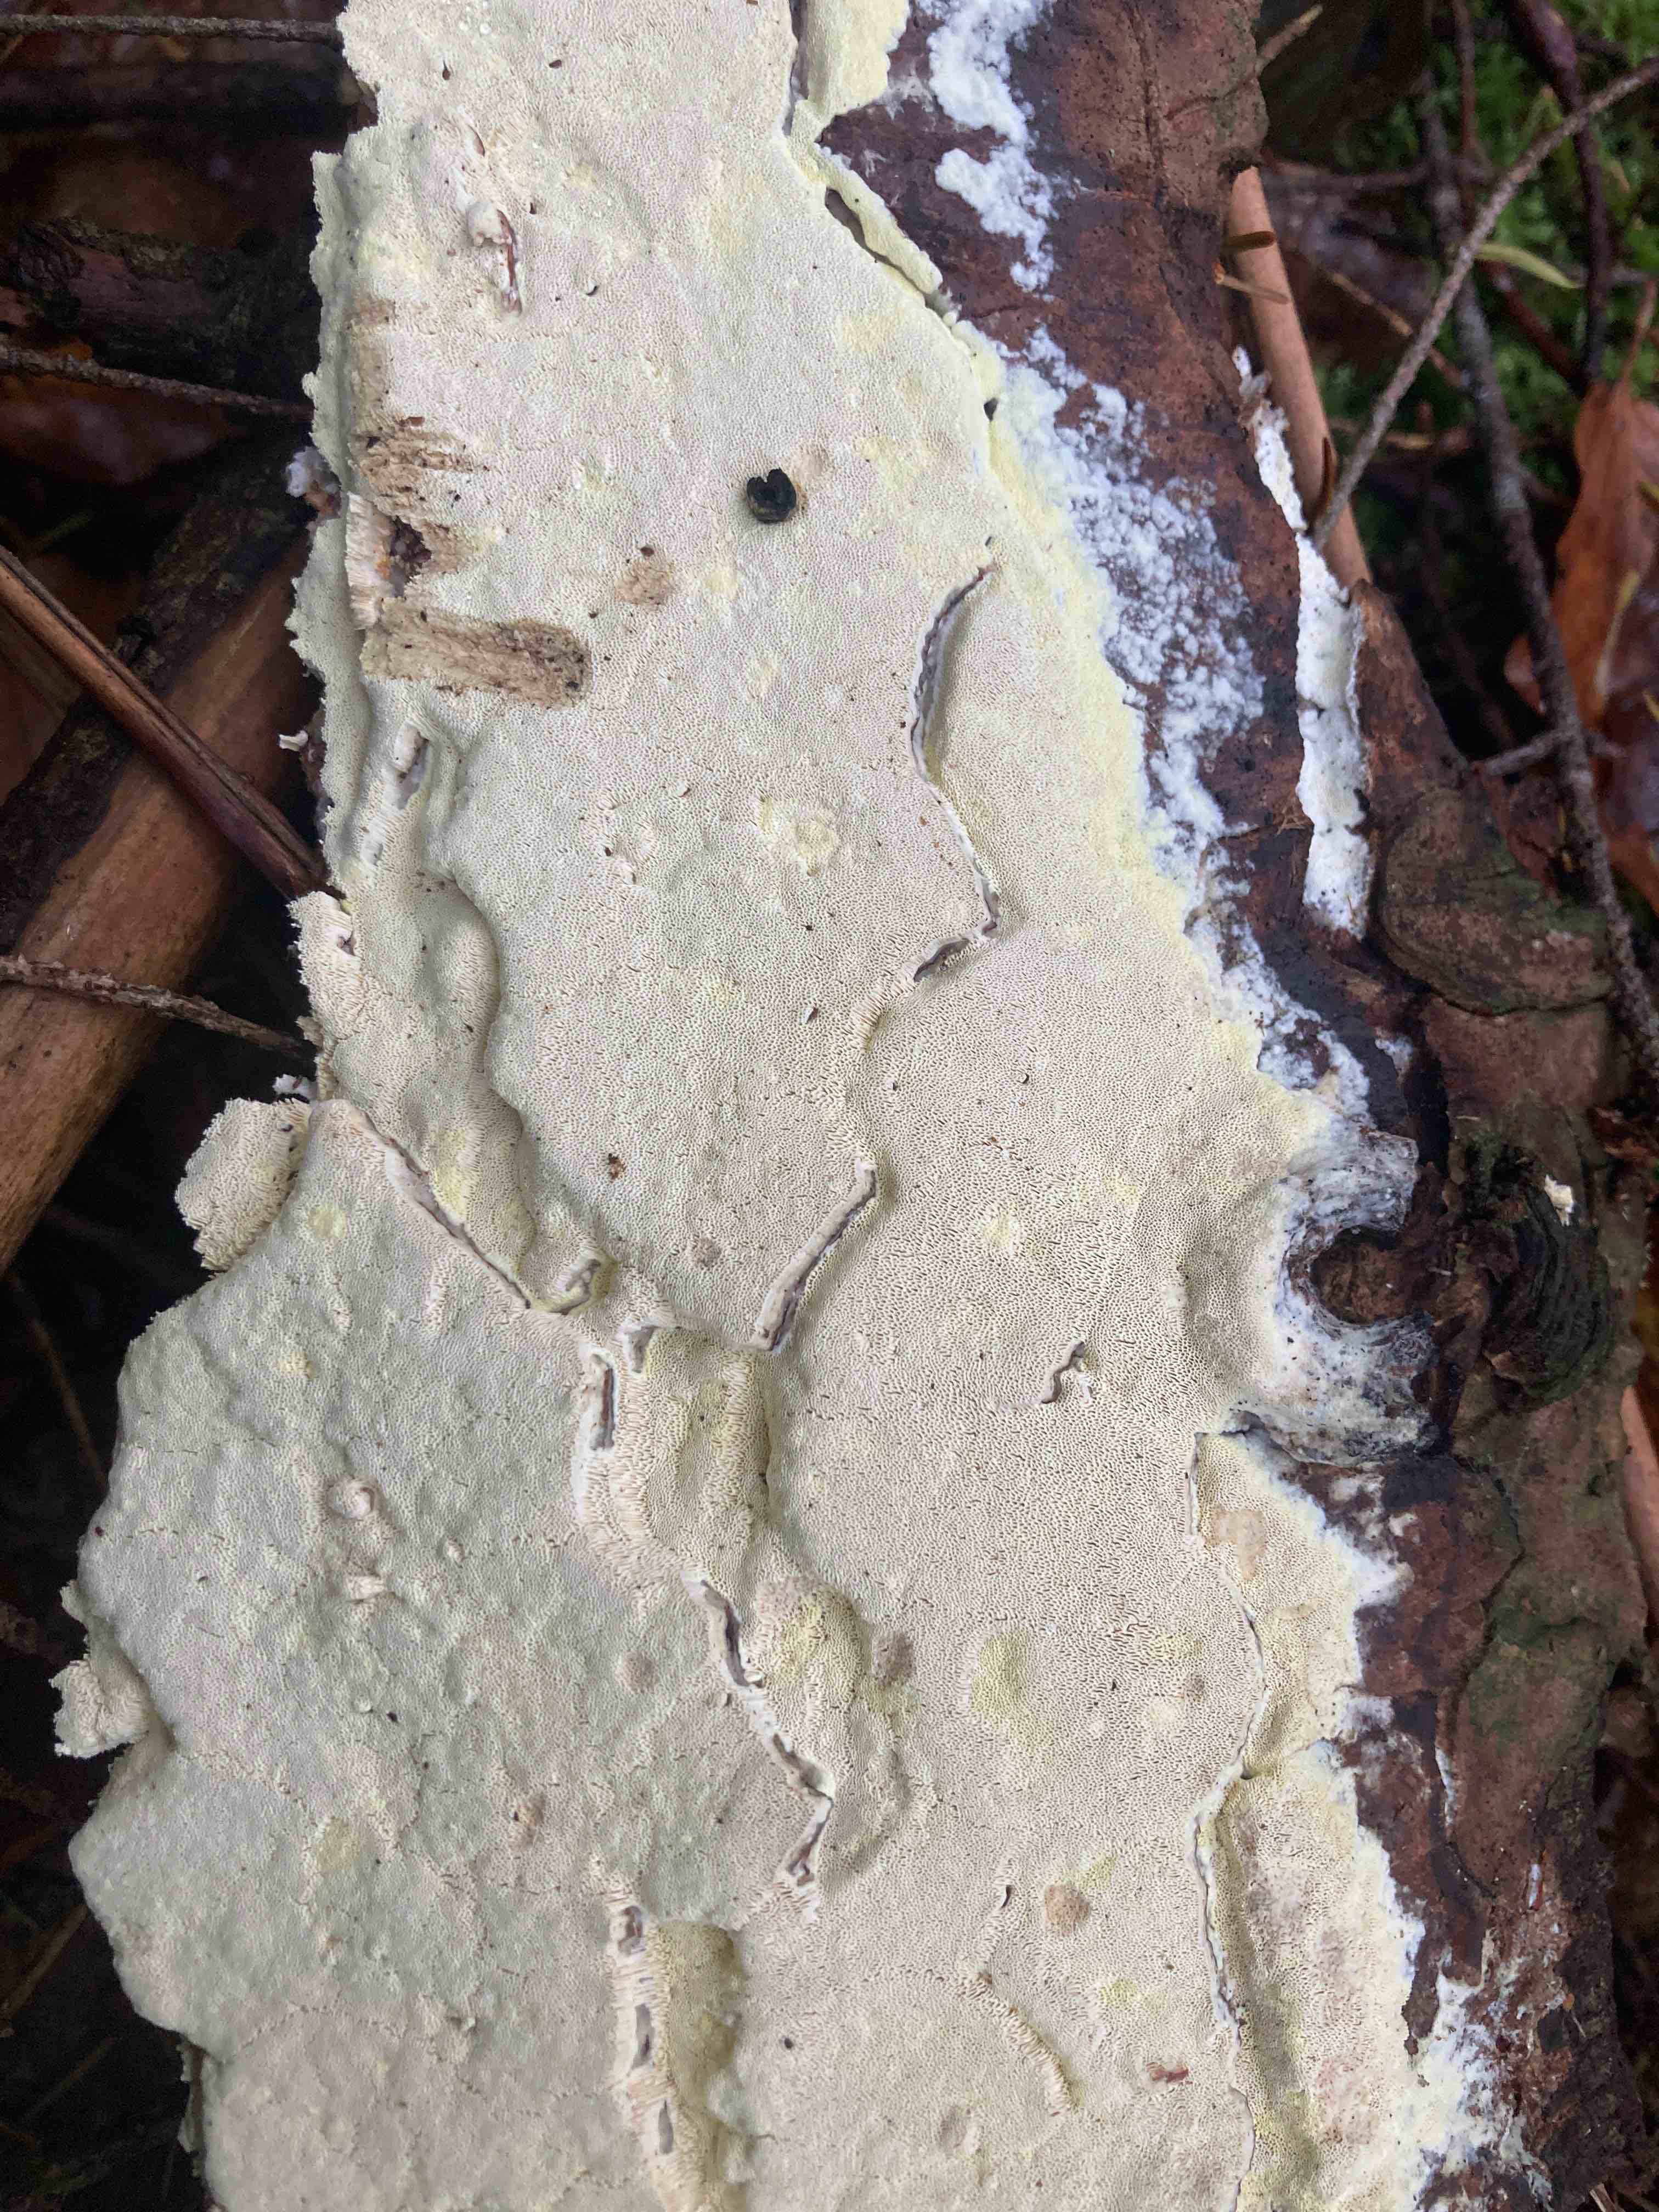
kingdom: Fungi
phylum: Basidiomycota
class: Agaricomycetes
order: Polyporales
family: Fomitopsidaceae
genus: Daedalea
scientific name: Daedalea xantha
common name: gul sejporesvamp
